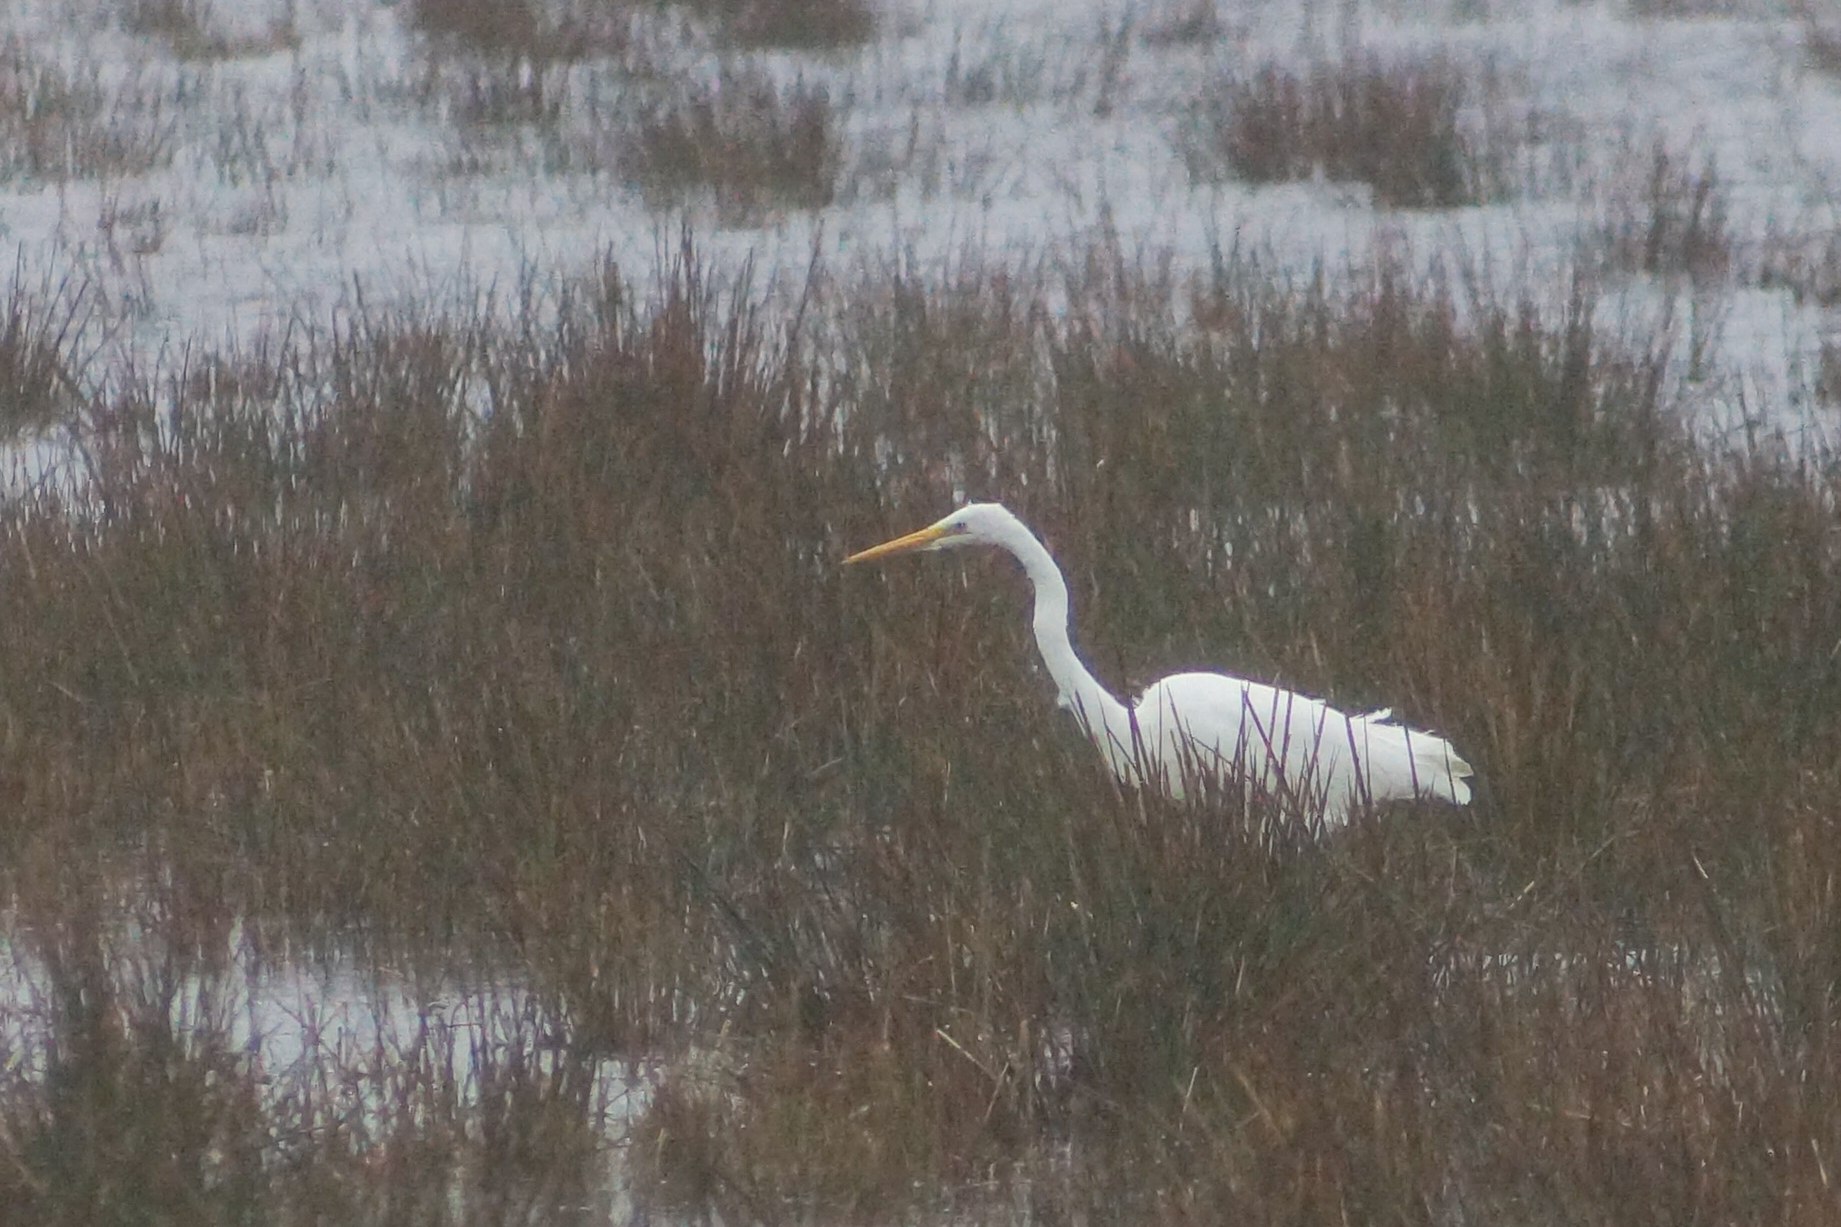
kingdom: Animalia
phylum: Chordata
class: Aves
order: Pelecaniformes
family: Ardeidae
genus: Ardea
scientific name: Ardea alba
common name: Sølvhejre
